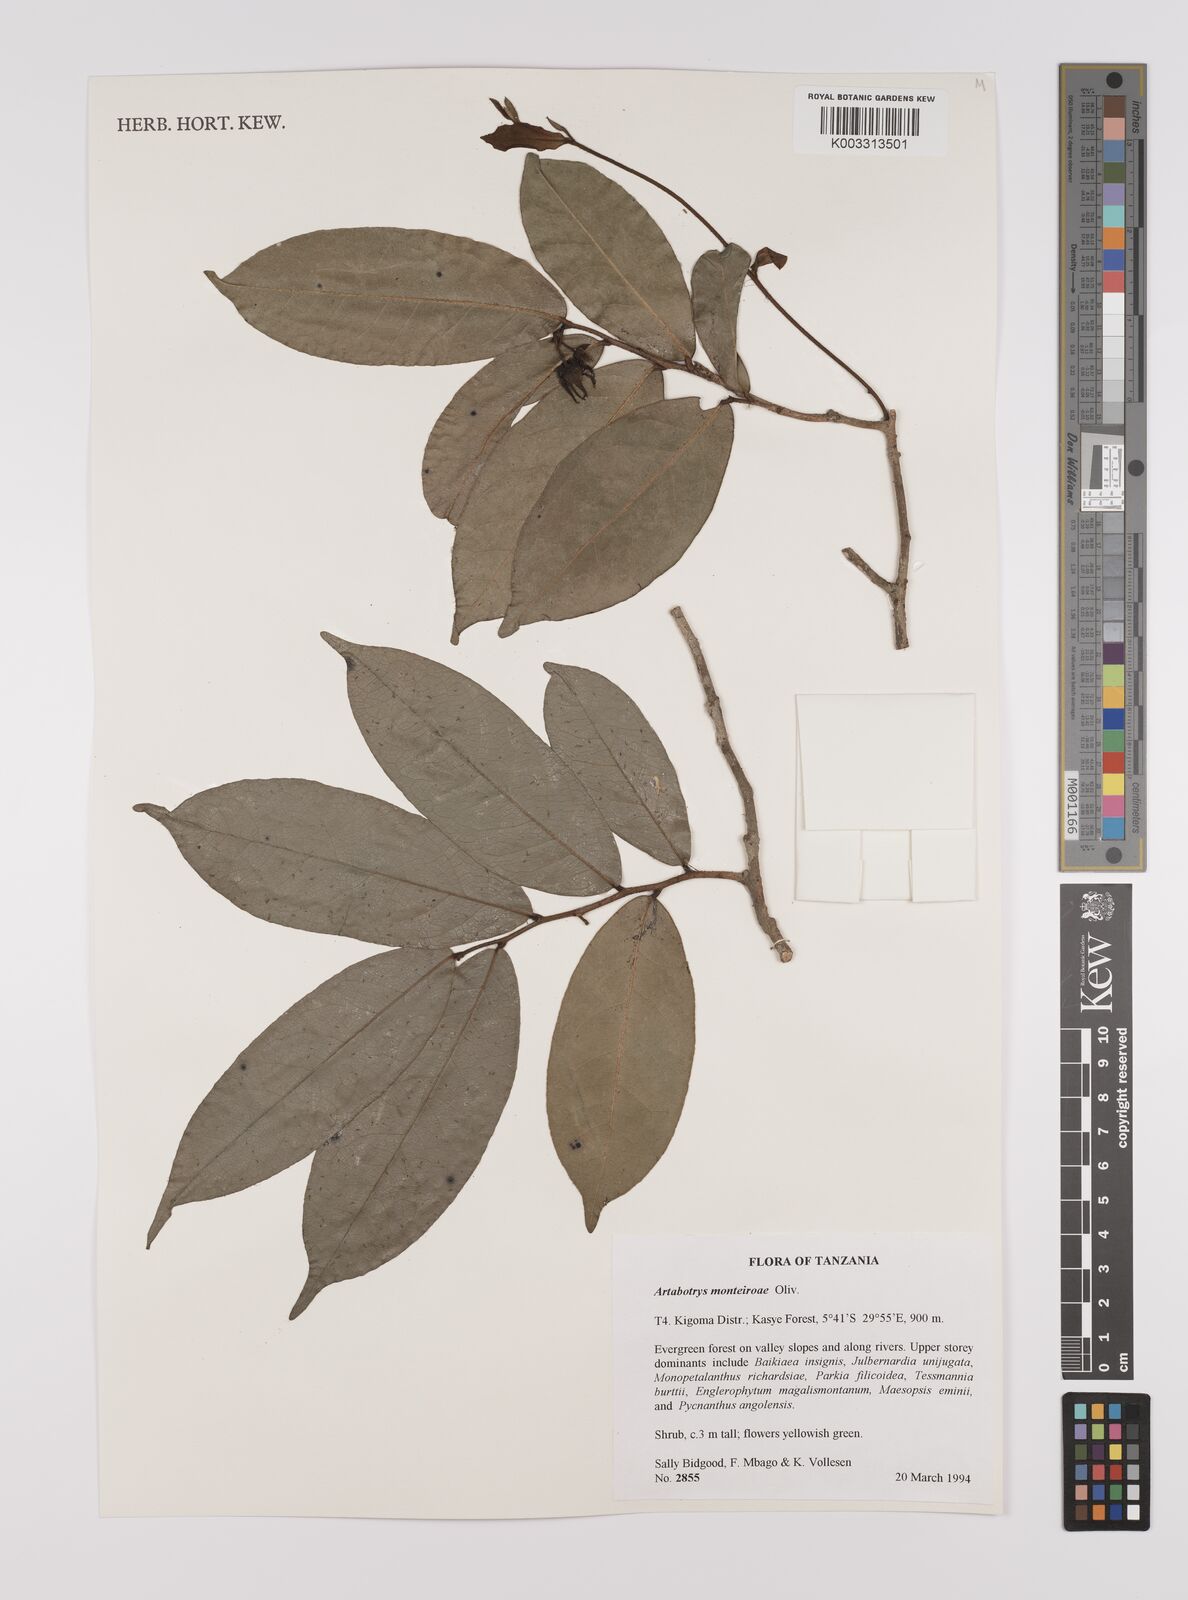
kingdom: Plantae
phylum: Tracheophyta
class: Magnoliopsida
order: Magnoliales
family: Annonaceae
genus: Artabotrys
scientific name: Artabotrys monteiroae
